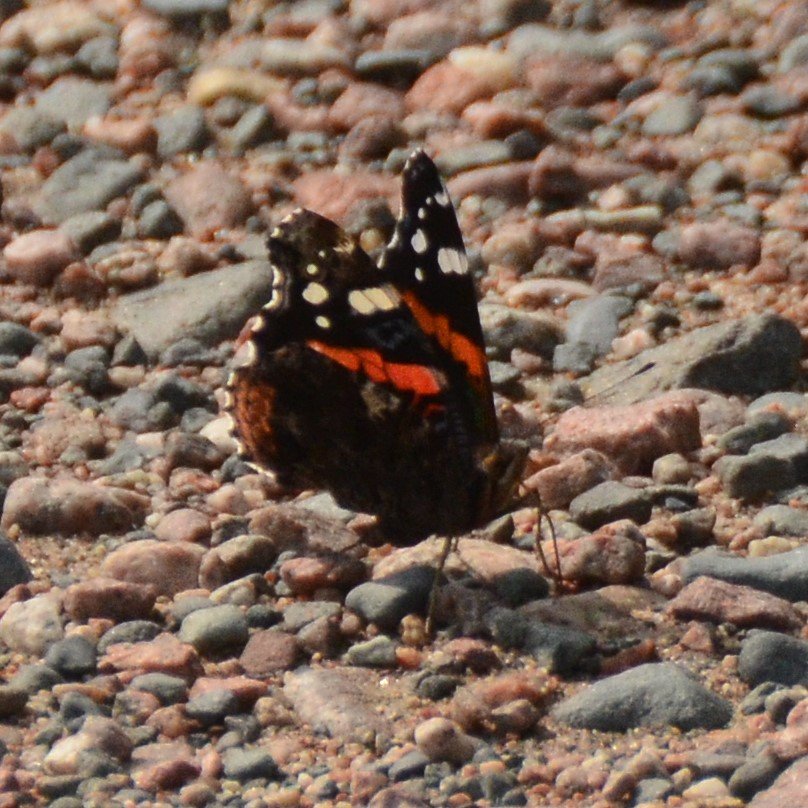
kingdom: Animalia
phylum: Arthropoda
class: Insecta
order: Lepidoptera
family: Nymphalidae
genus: Vanessa
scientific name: Vanessa atalanta
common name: Red Admiral
